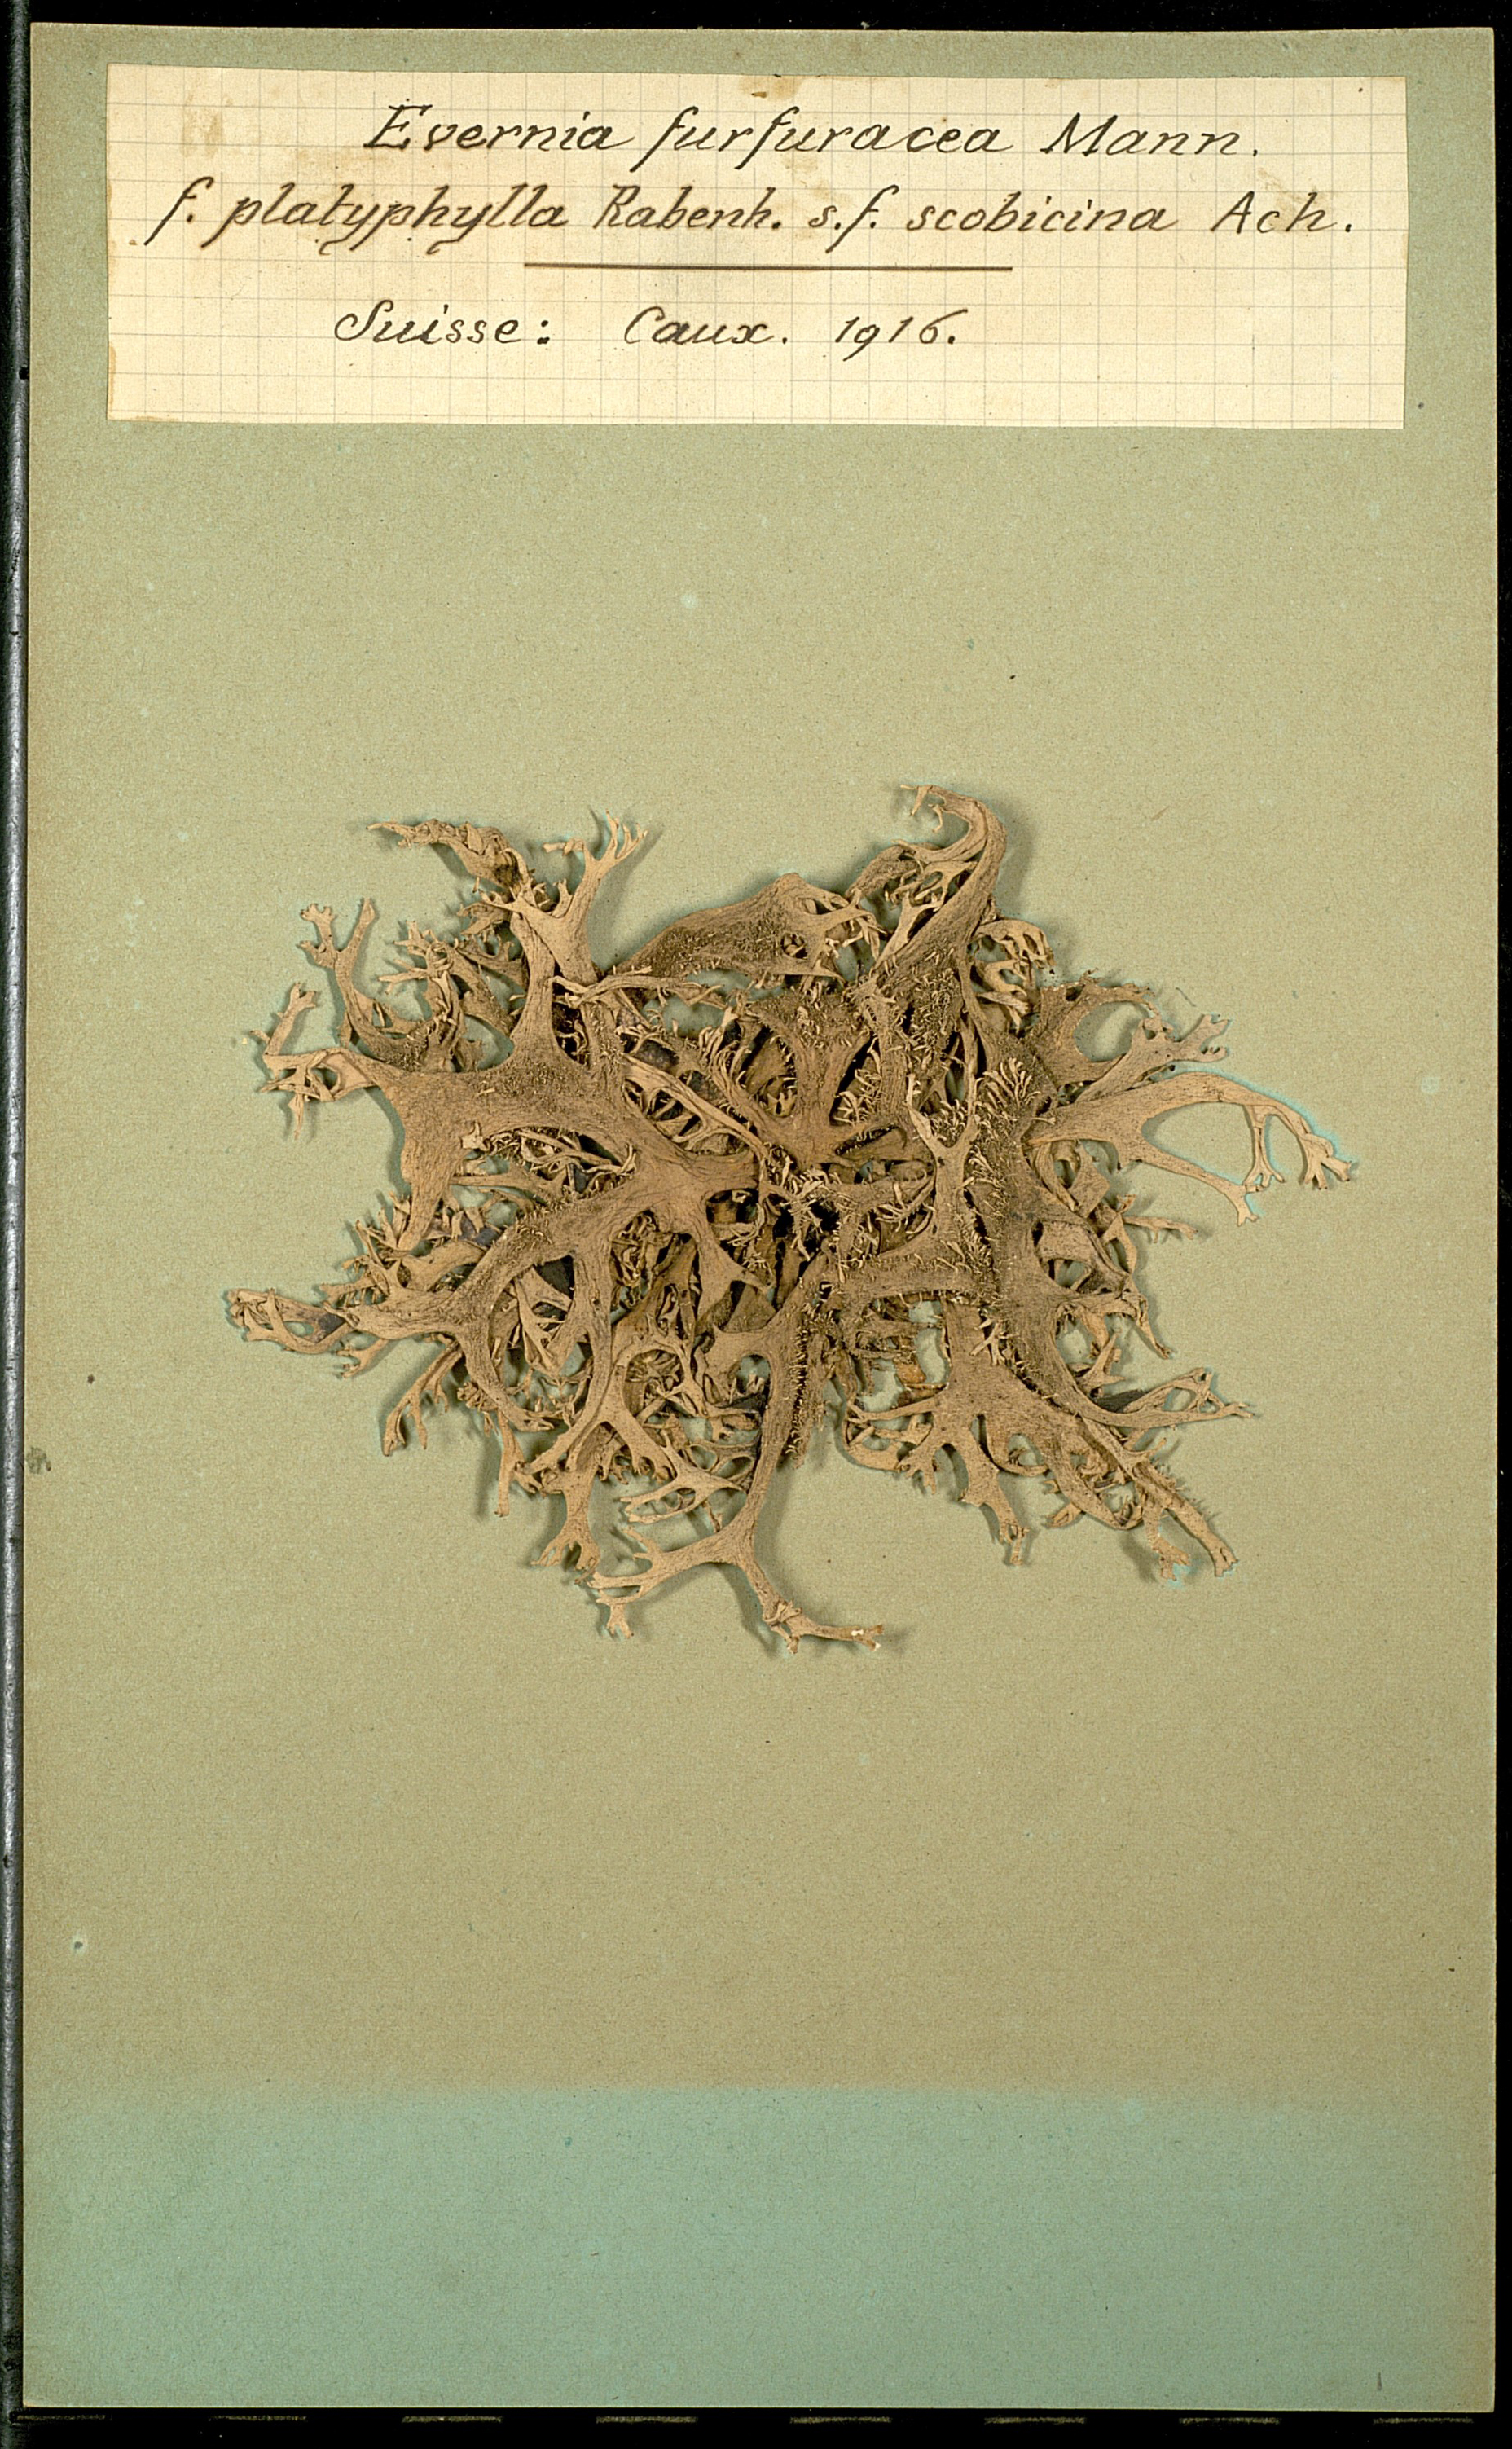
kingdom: Fungi
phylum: Ascomycota
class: Lecanoromycetes
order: Lecanorales
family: Parmeliaceae
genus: Pseudevernia
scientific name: Pseudevernia furfuracea
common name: Tree moss
